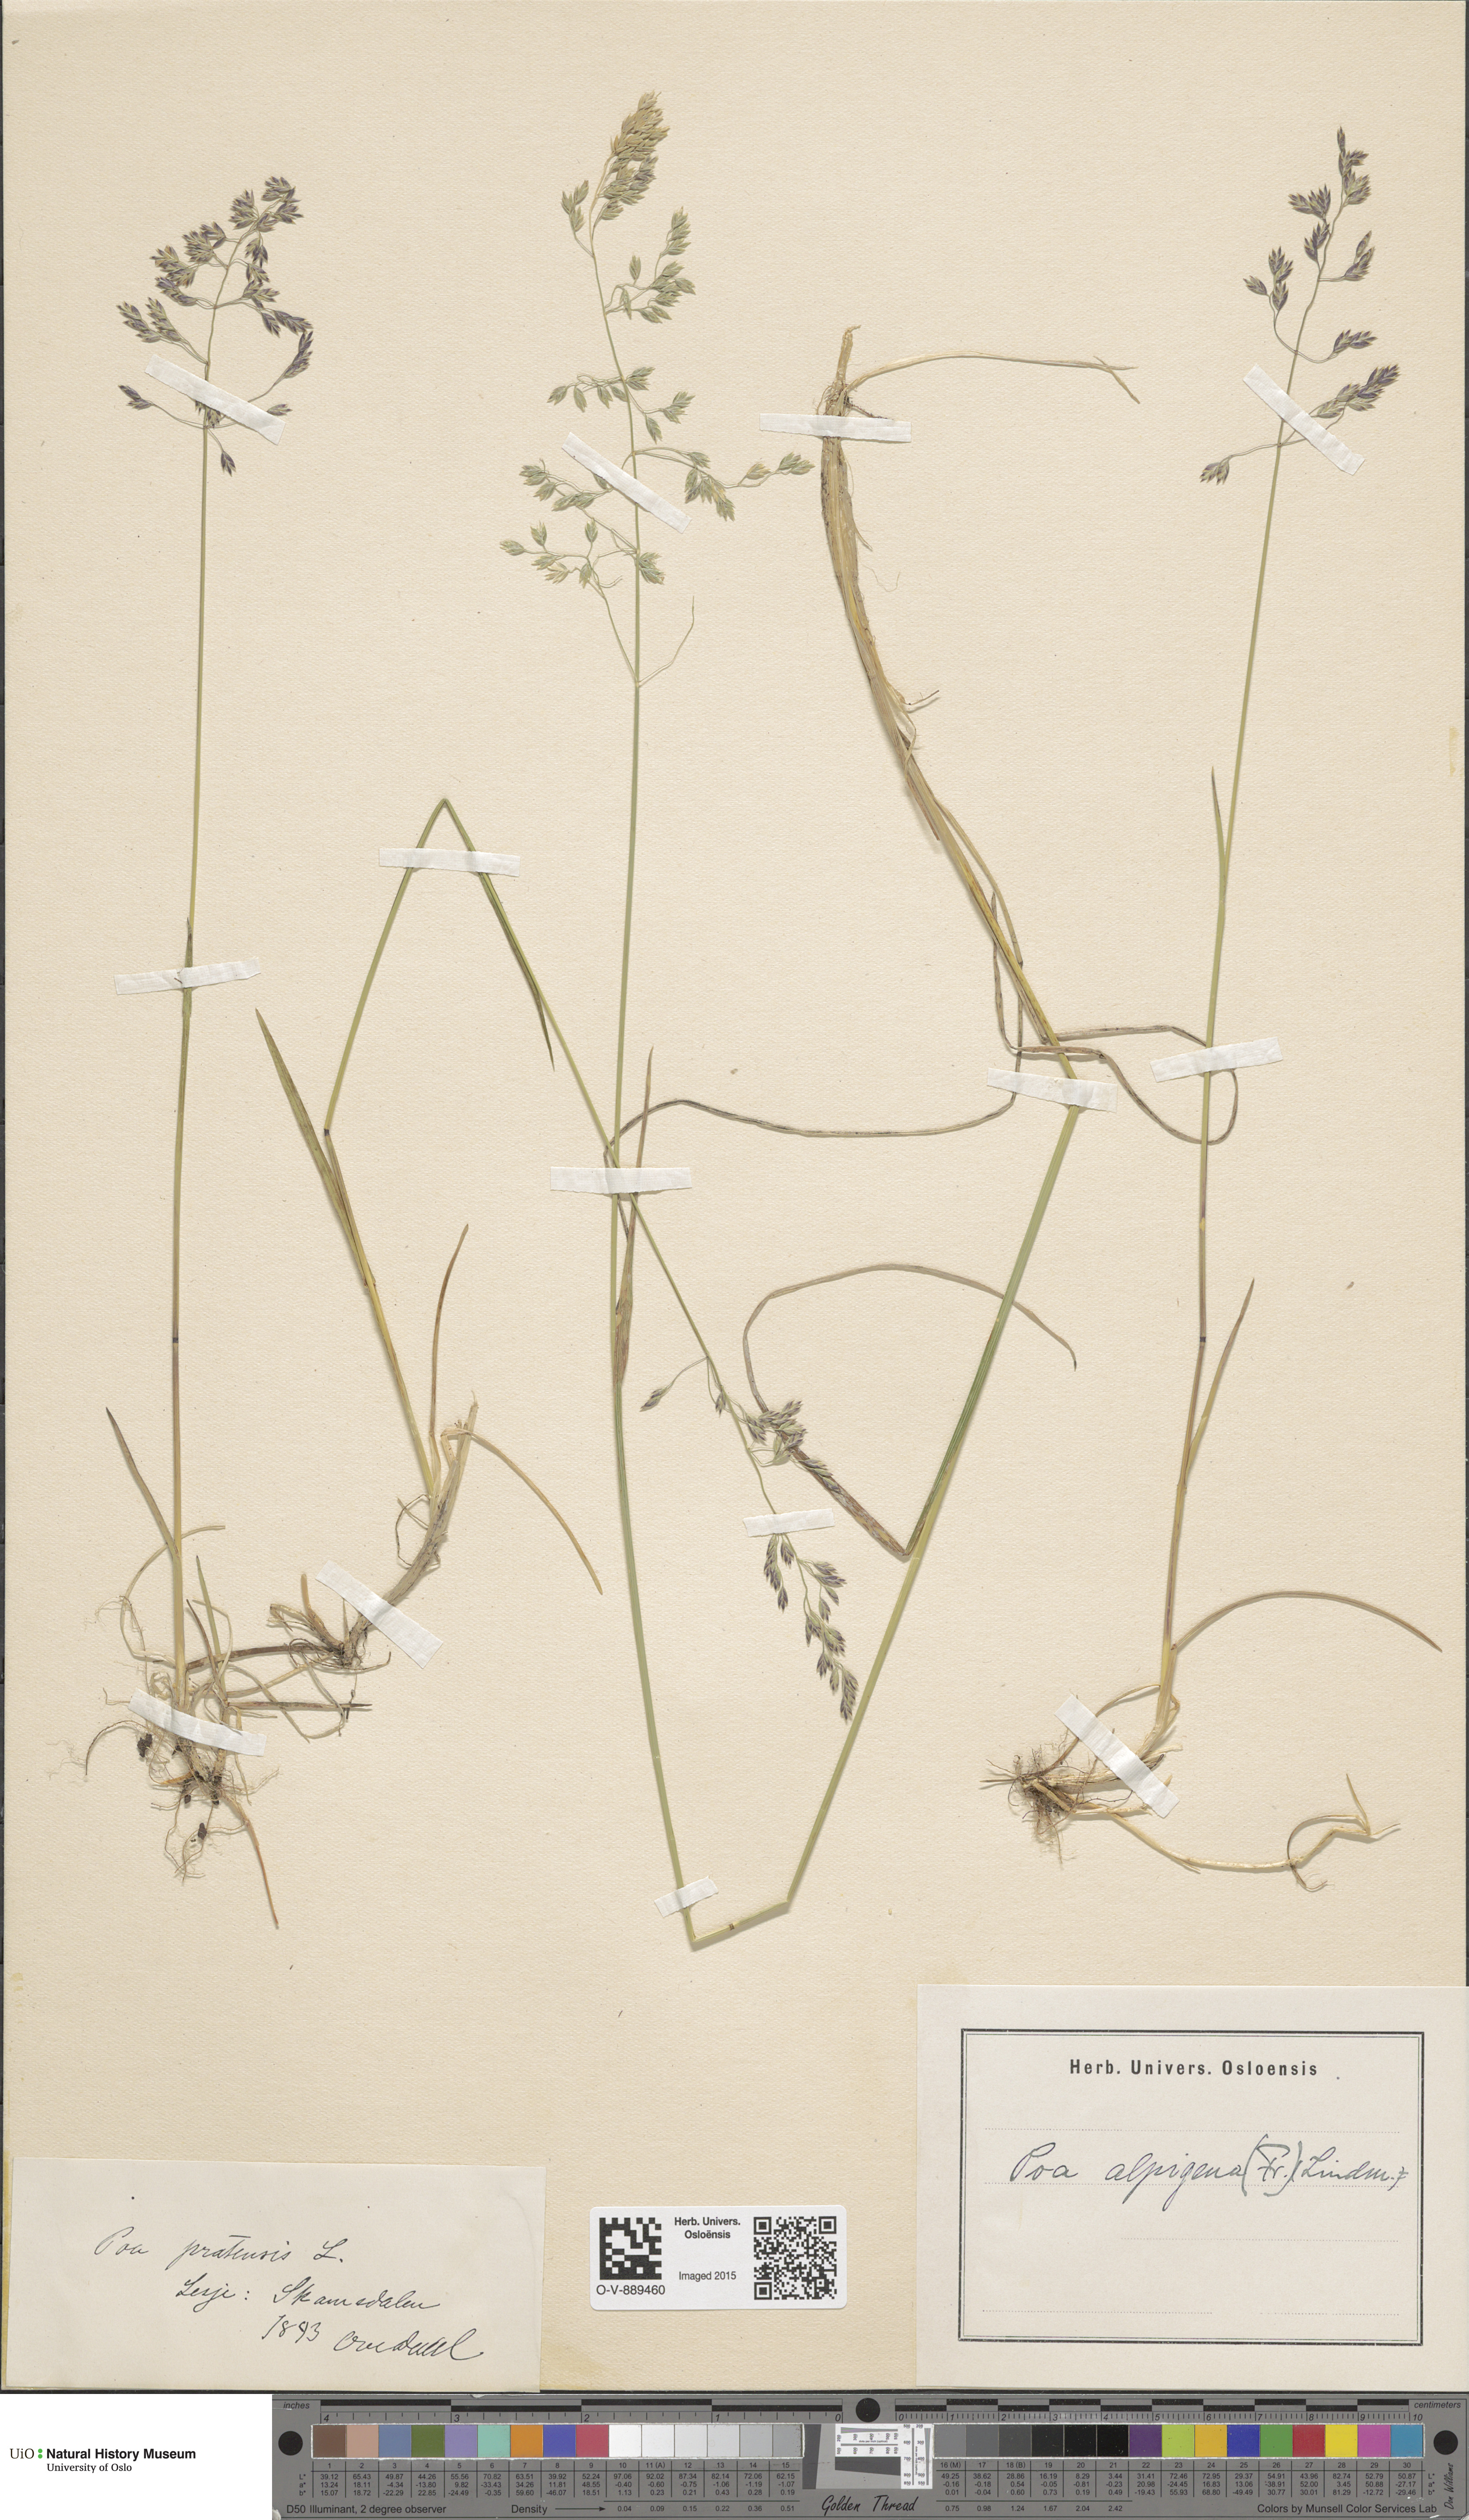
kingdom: Plantae
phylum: Tracheophyta
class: Liliopsida
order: Poales
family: Poaceae
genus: Poa
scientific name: Poa alpigena
